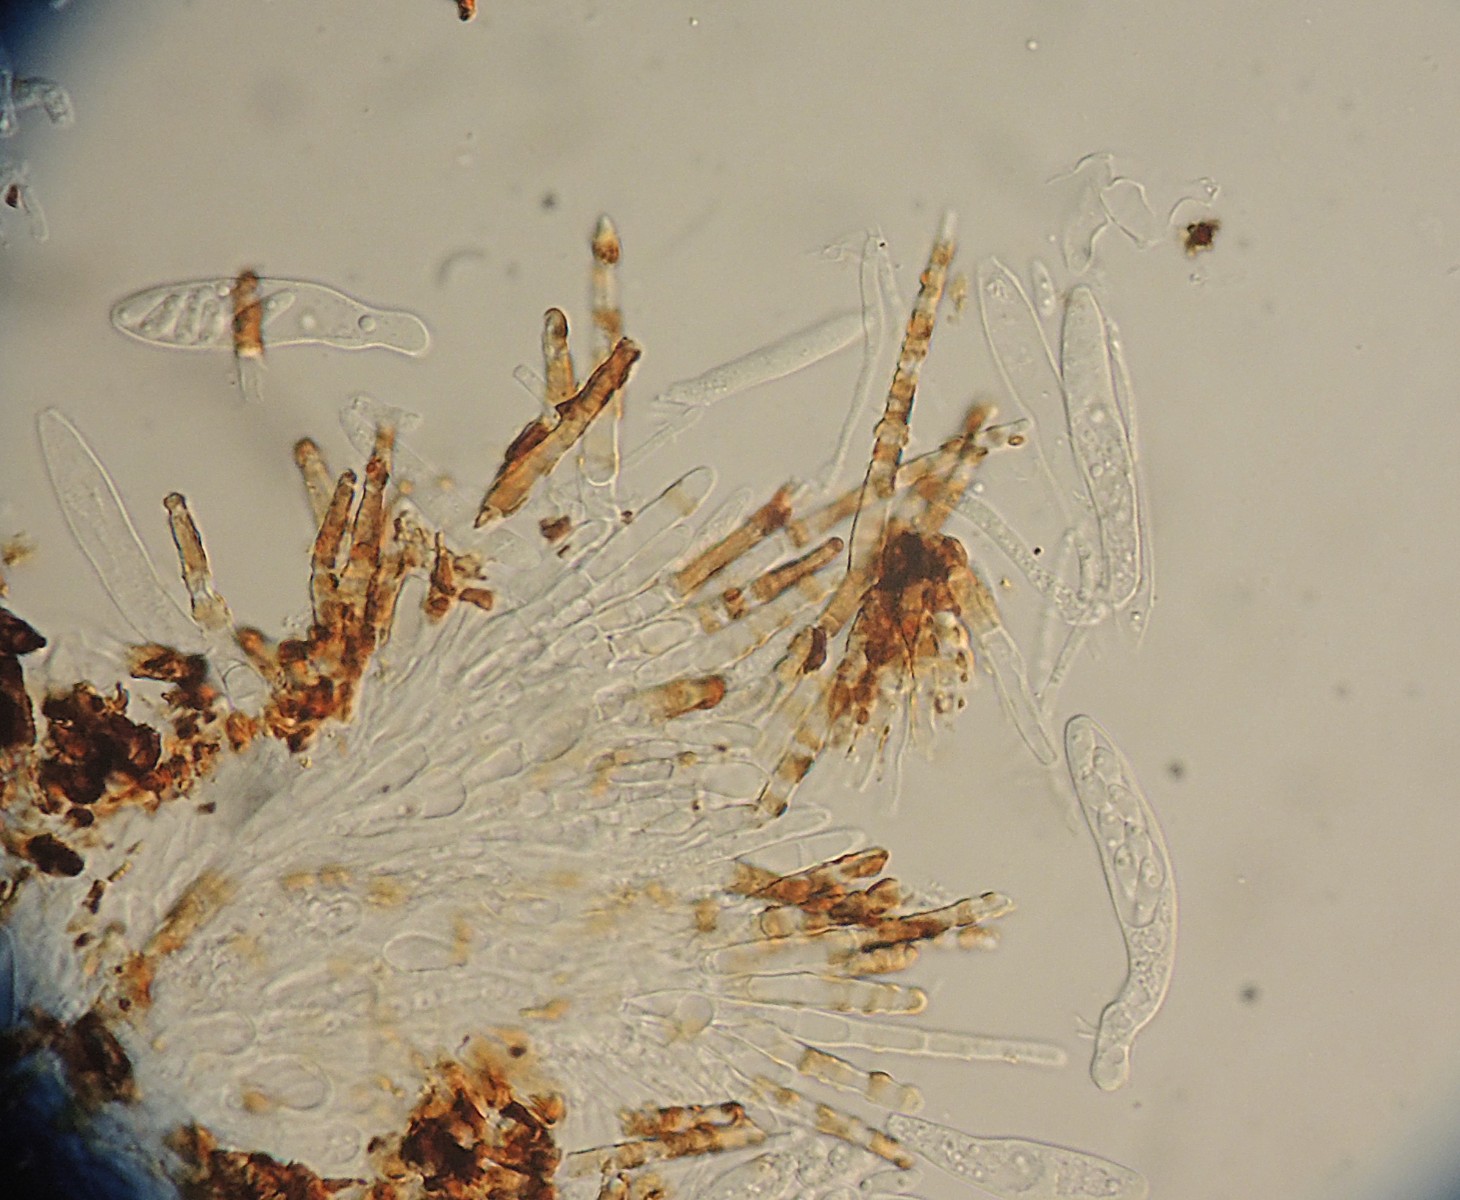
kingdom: Fungi
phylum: Ascomycota
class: Leotiomycetes
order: Helotiales
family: Hyaloscyphaceae
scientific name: Hyaloscyphaceae
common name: frynseskivefamilien
